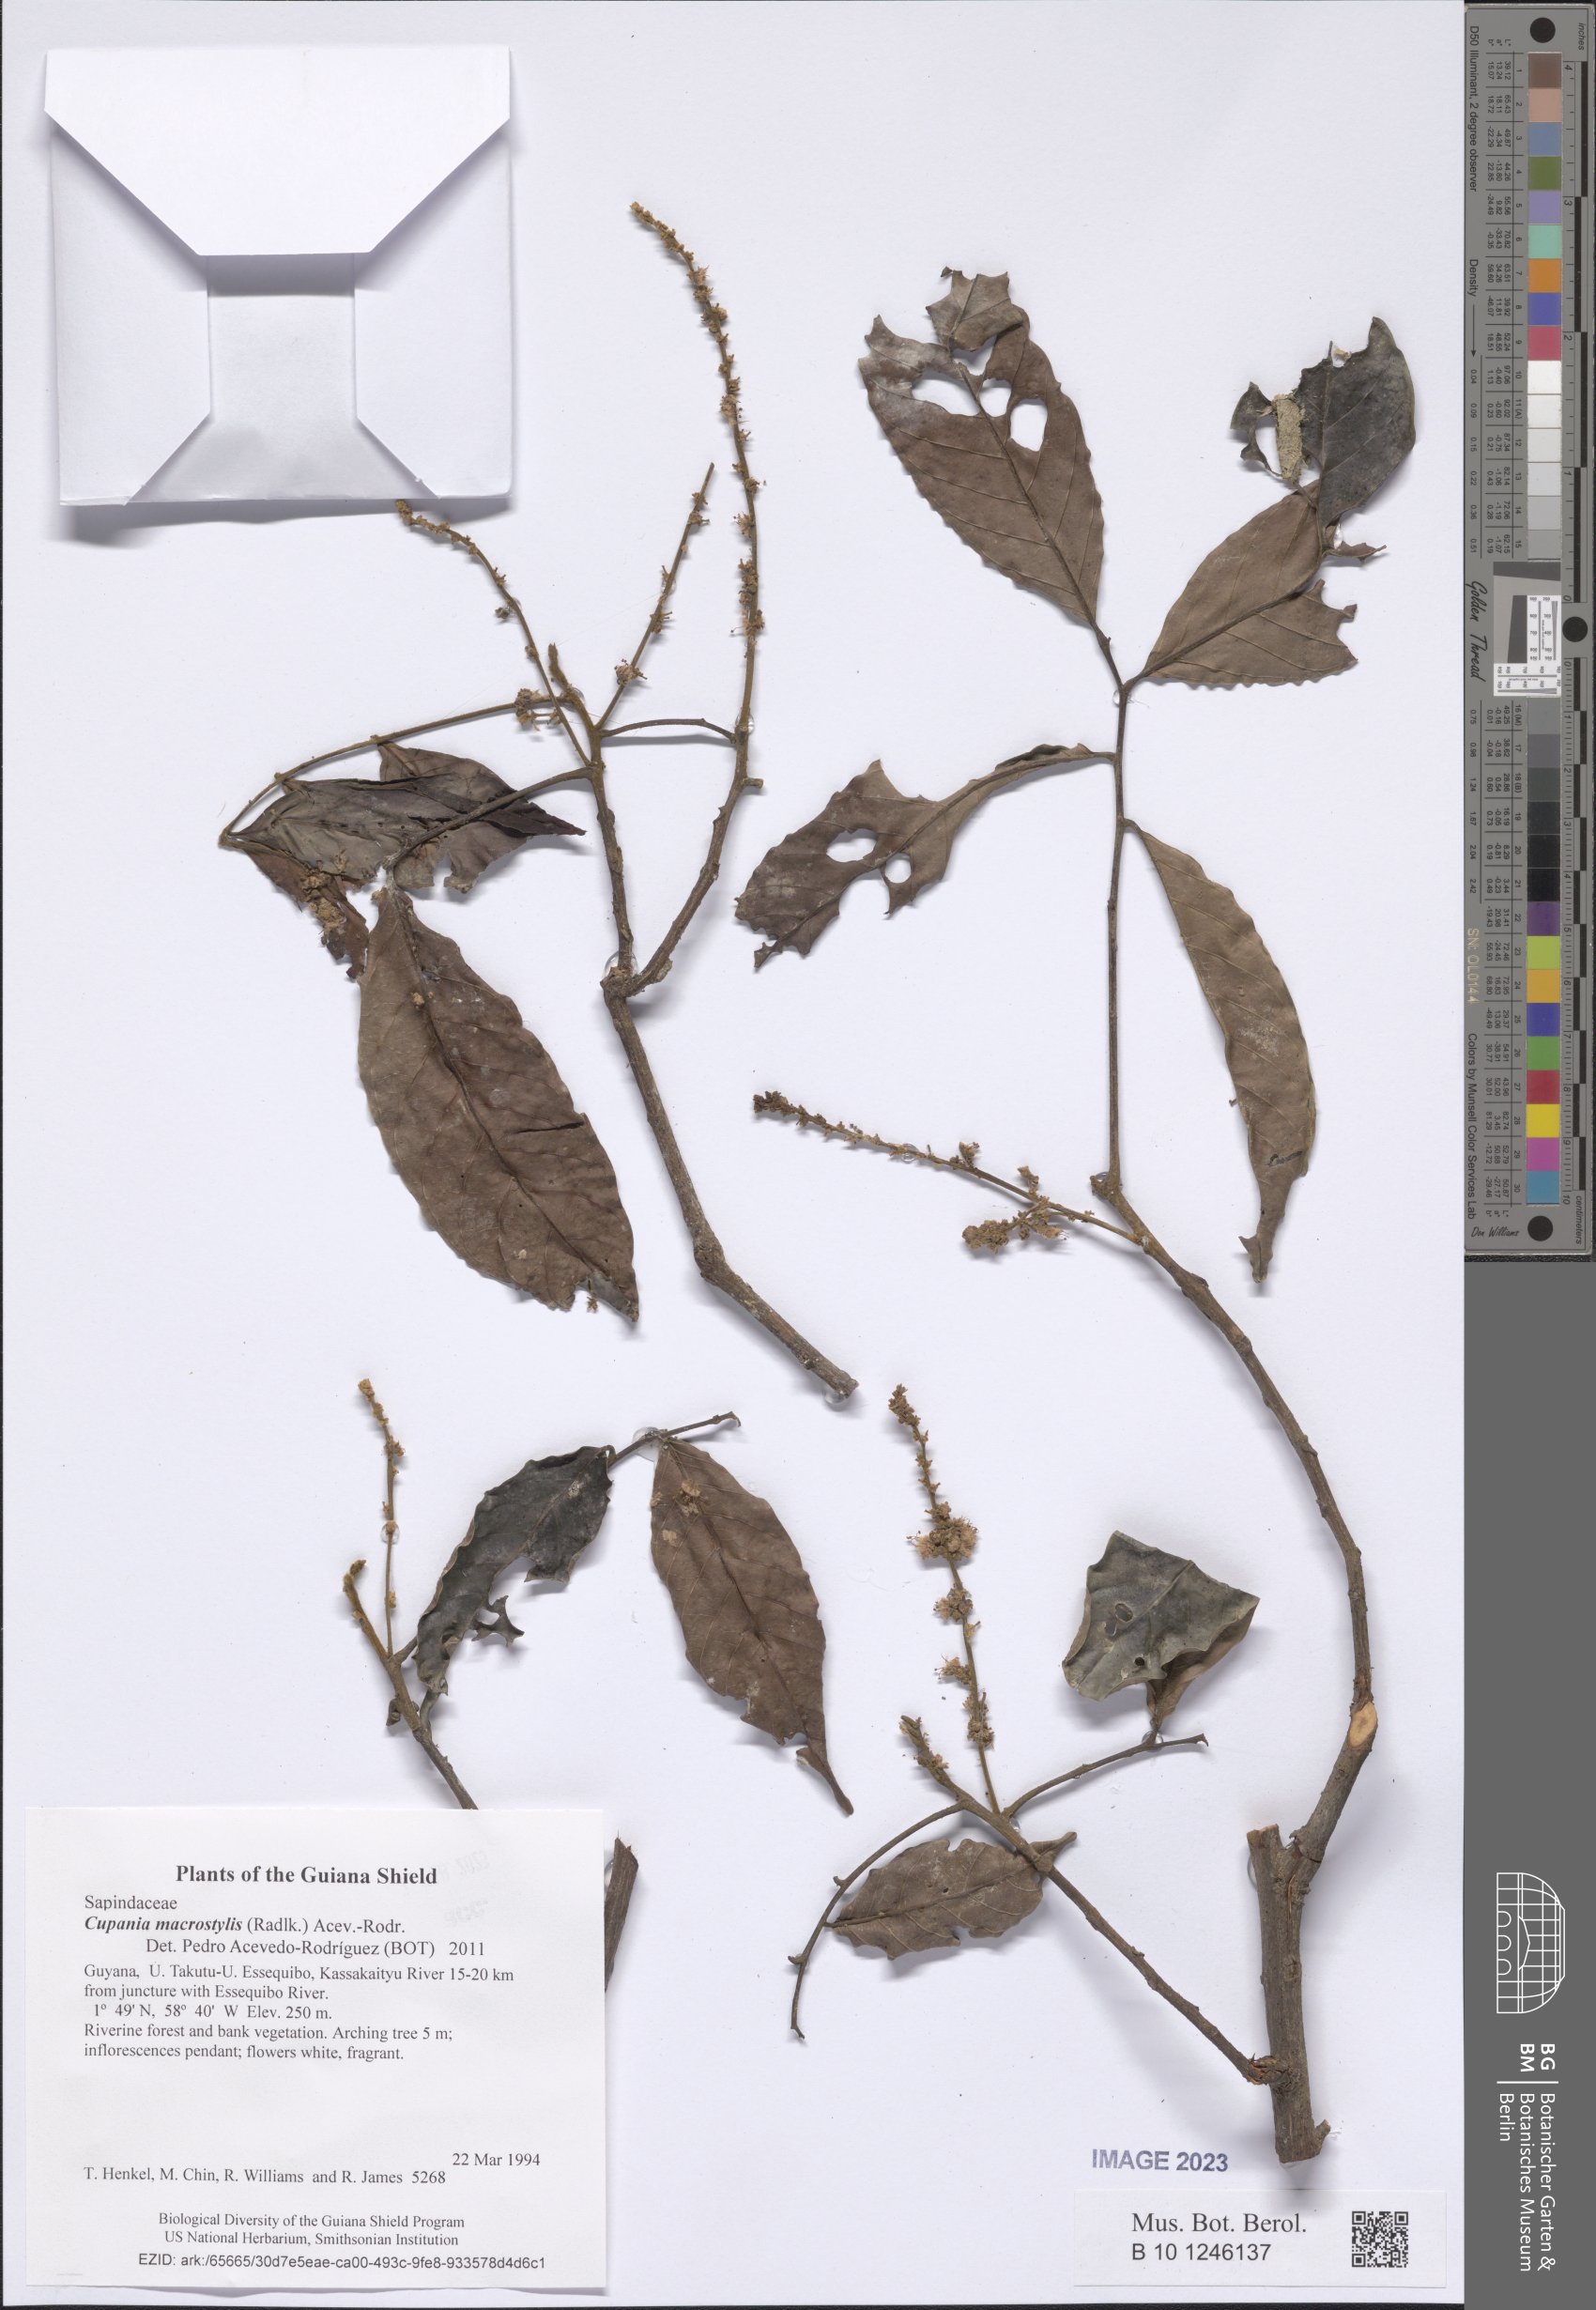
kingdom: Plantae
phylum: Tracheophyta
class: Magnoliopsida
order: Sapindales
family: Sapindaceae
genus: Cupania
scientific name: Cupania macrostylis
